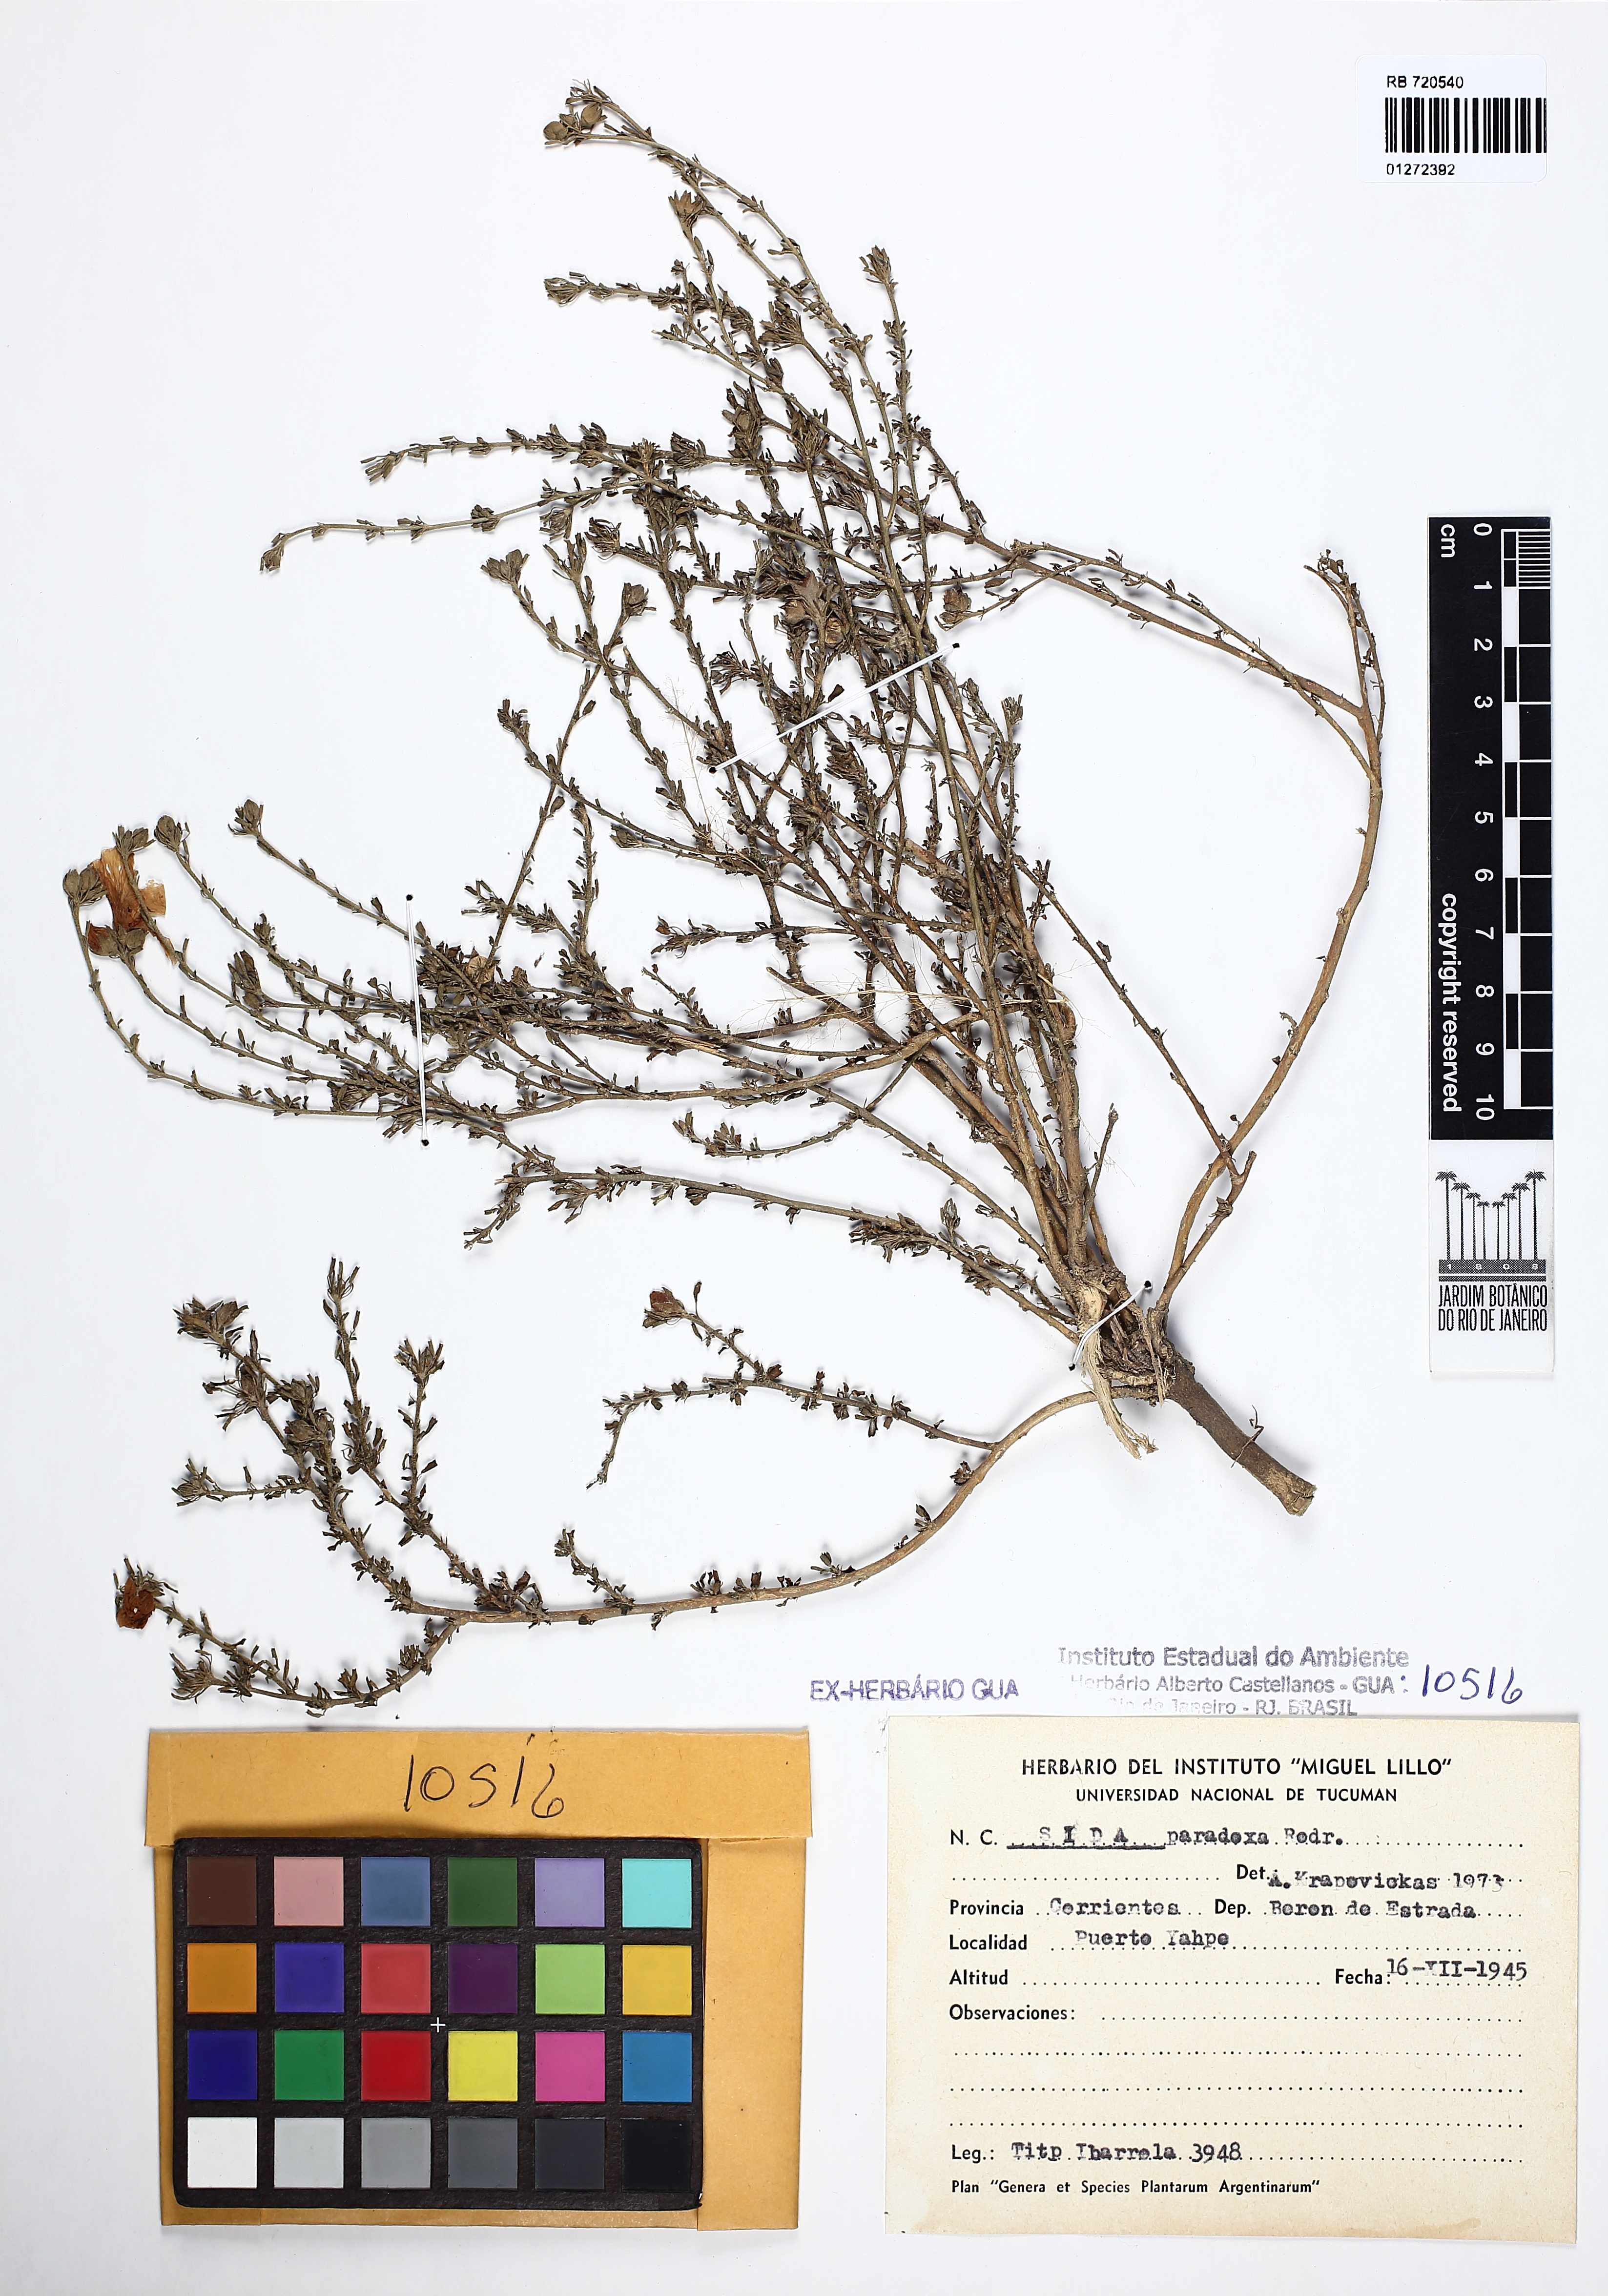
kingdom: Plantae
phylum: Tracheophyta
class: Magnoliopsida
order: Malvales
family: Malvaceae
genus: Sida
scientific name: Sida paradoxa
